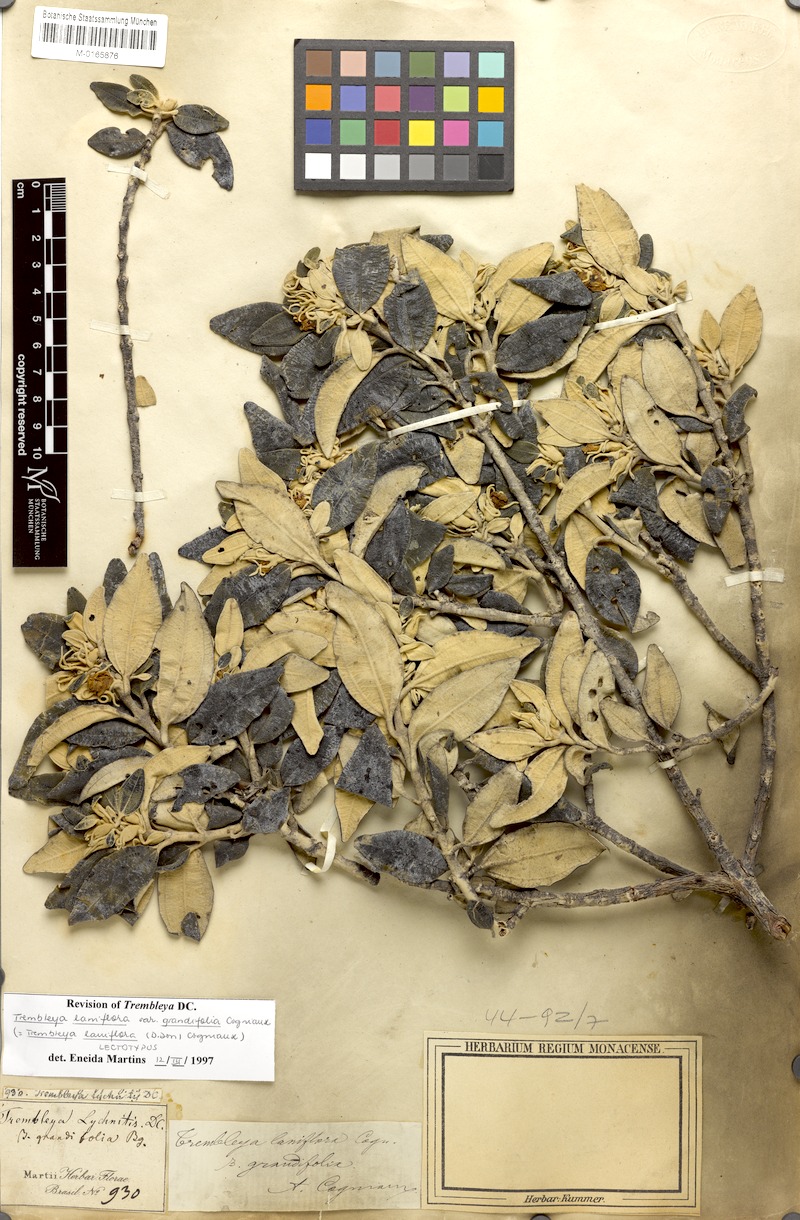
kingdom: Plantae
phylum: Tracheophyta
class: Magnoliopsida
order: Myrtales
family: Melastomataceae
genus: Microlicia
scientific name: Microlicia laniflora
